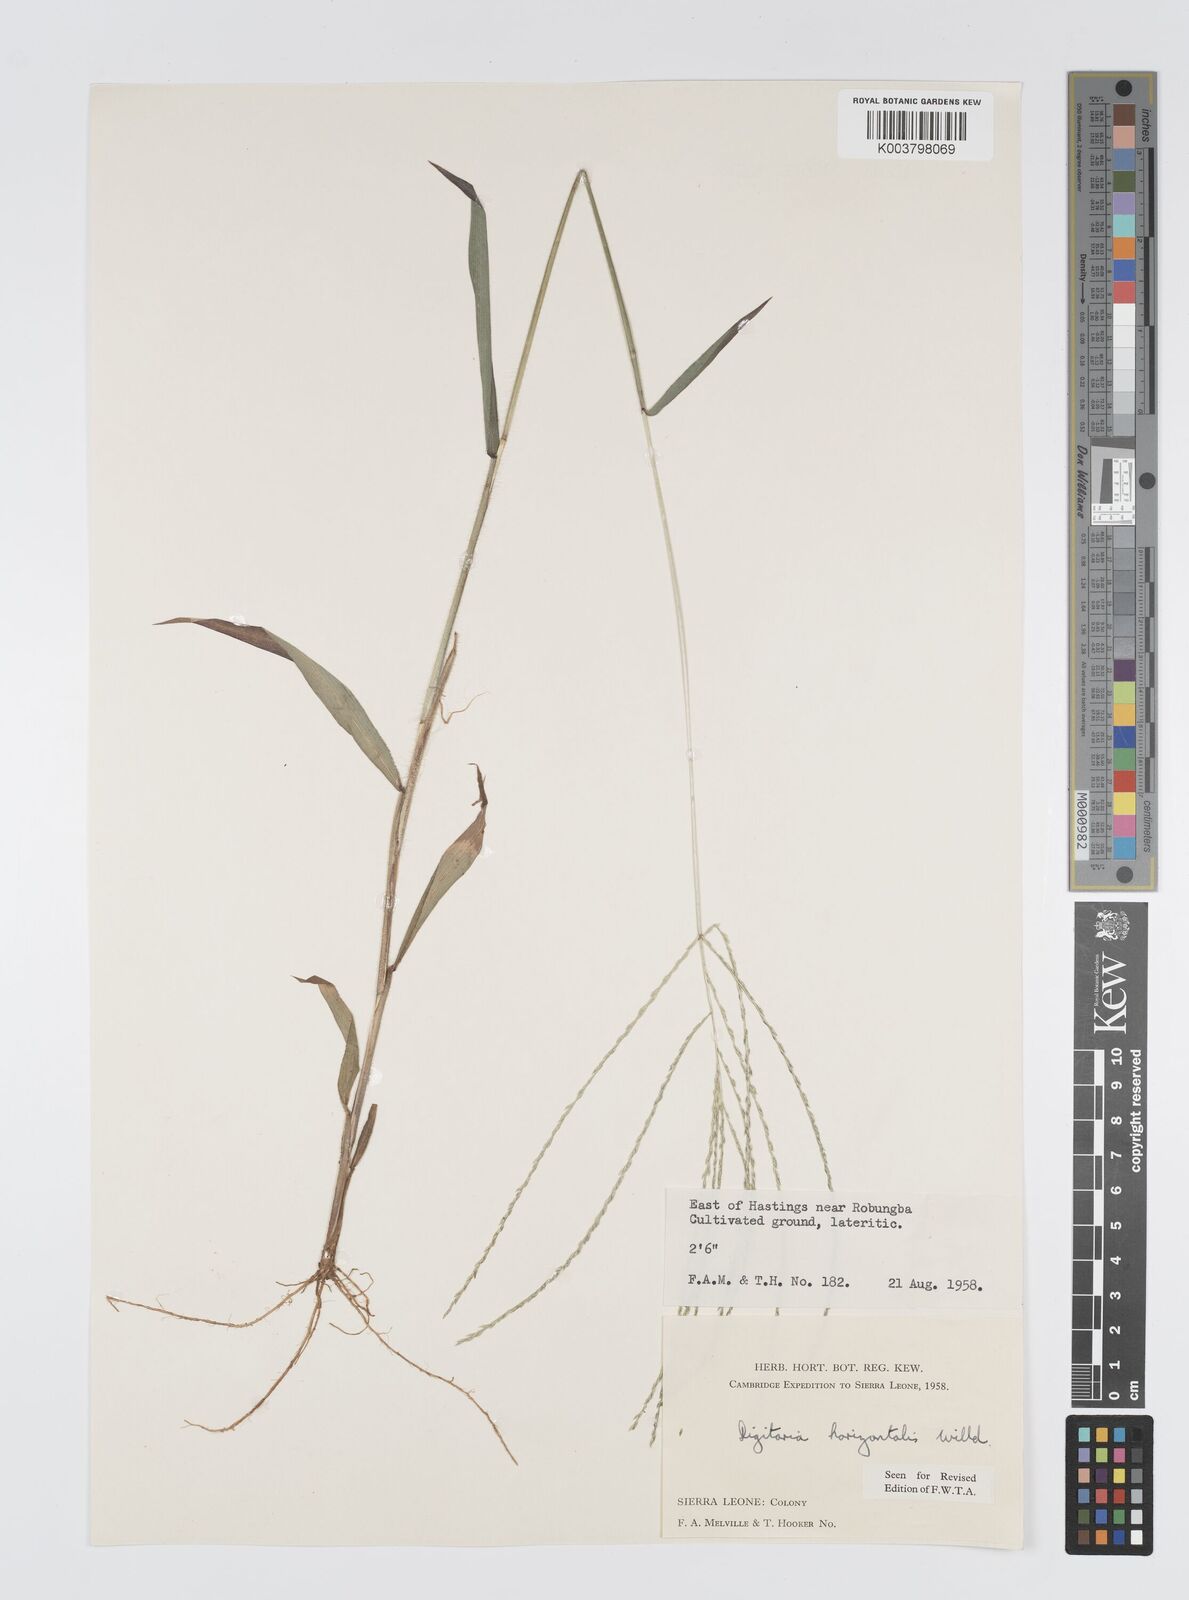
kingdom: Plantae
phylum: Tracheophyta
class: Liliopsida
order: Poales
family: Poaceae
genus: Digitaria
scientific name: Digitaria horizontalis
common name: Jamaican crabgrass
